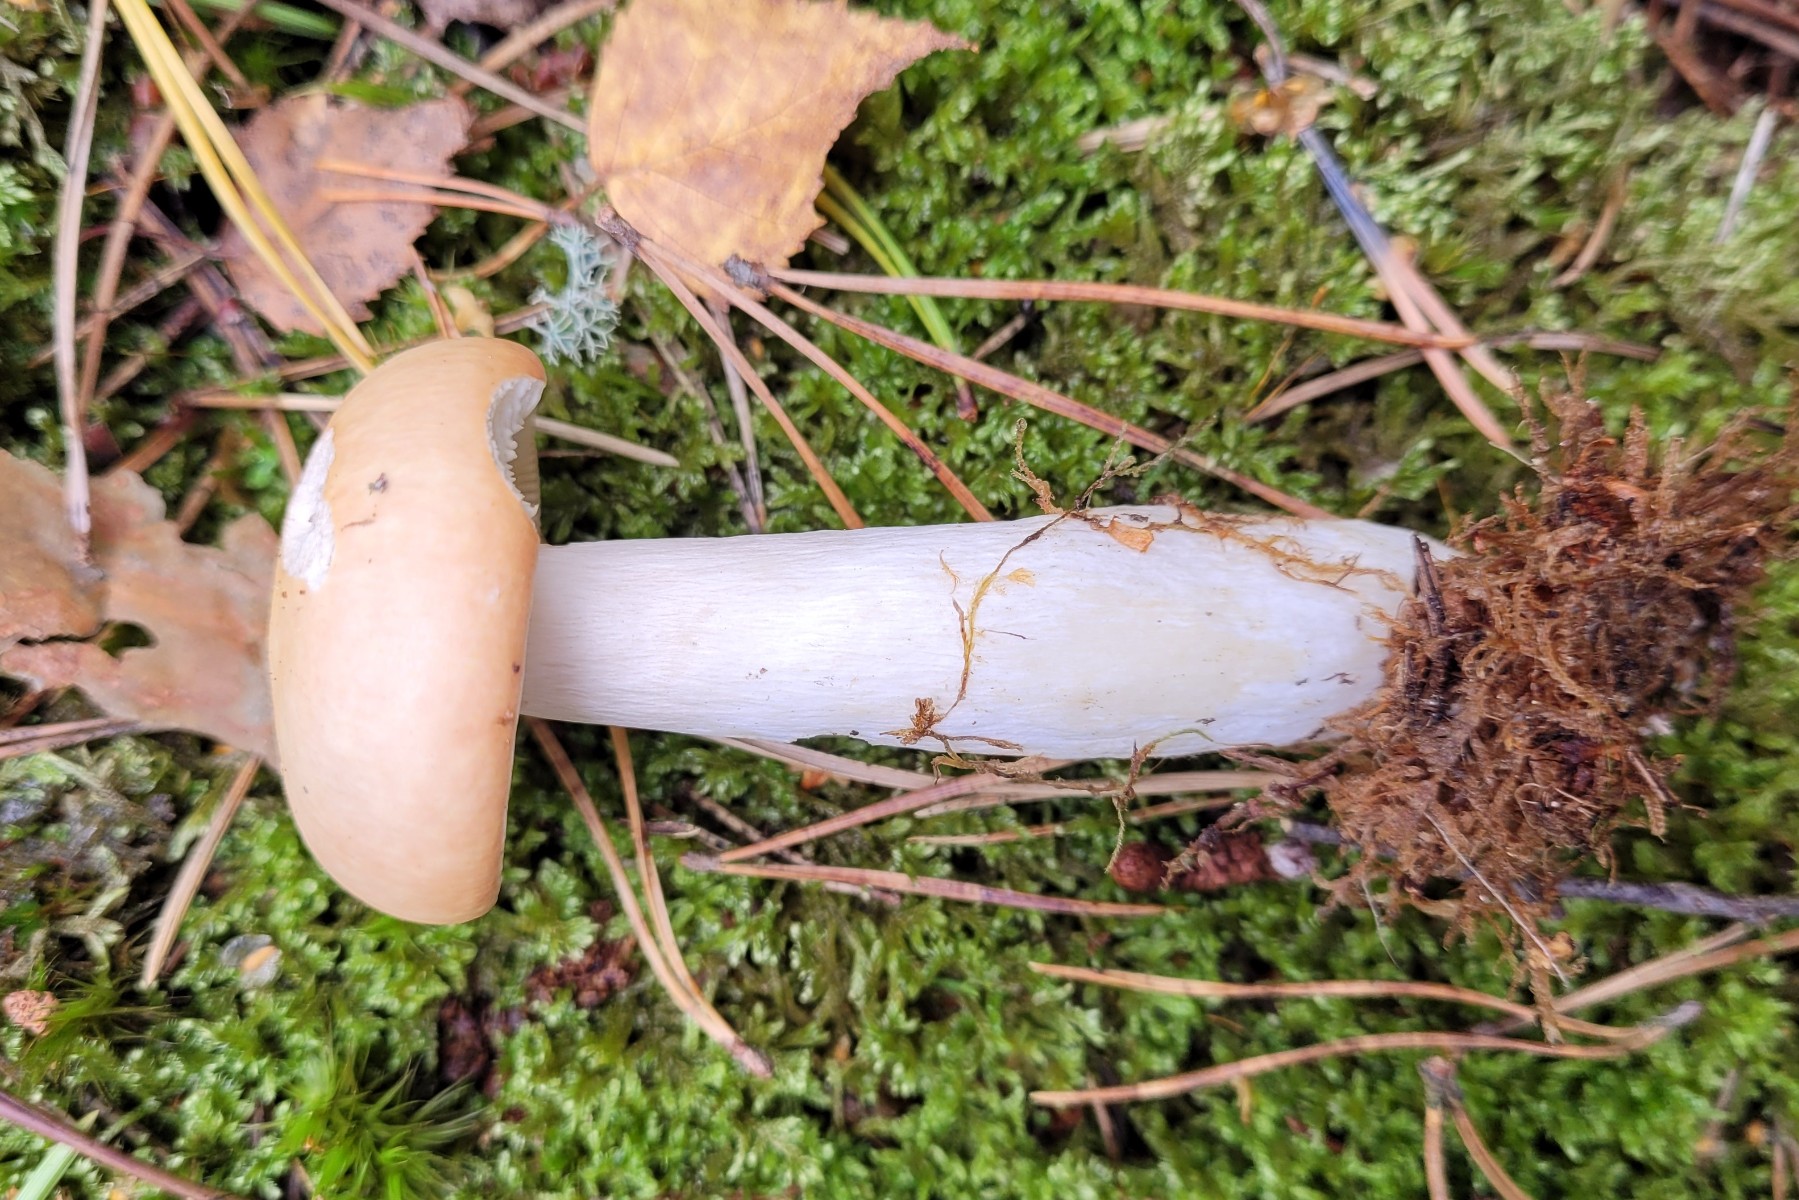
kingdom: Fungi
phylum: Basidiomycota
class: Agaricomycetes
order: Russulales
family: Russulaceae
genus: Russula
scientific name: Russula decolorans
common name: afblegende skørhat
